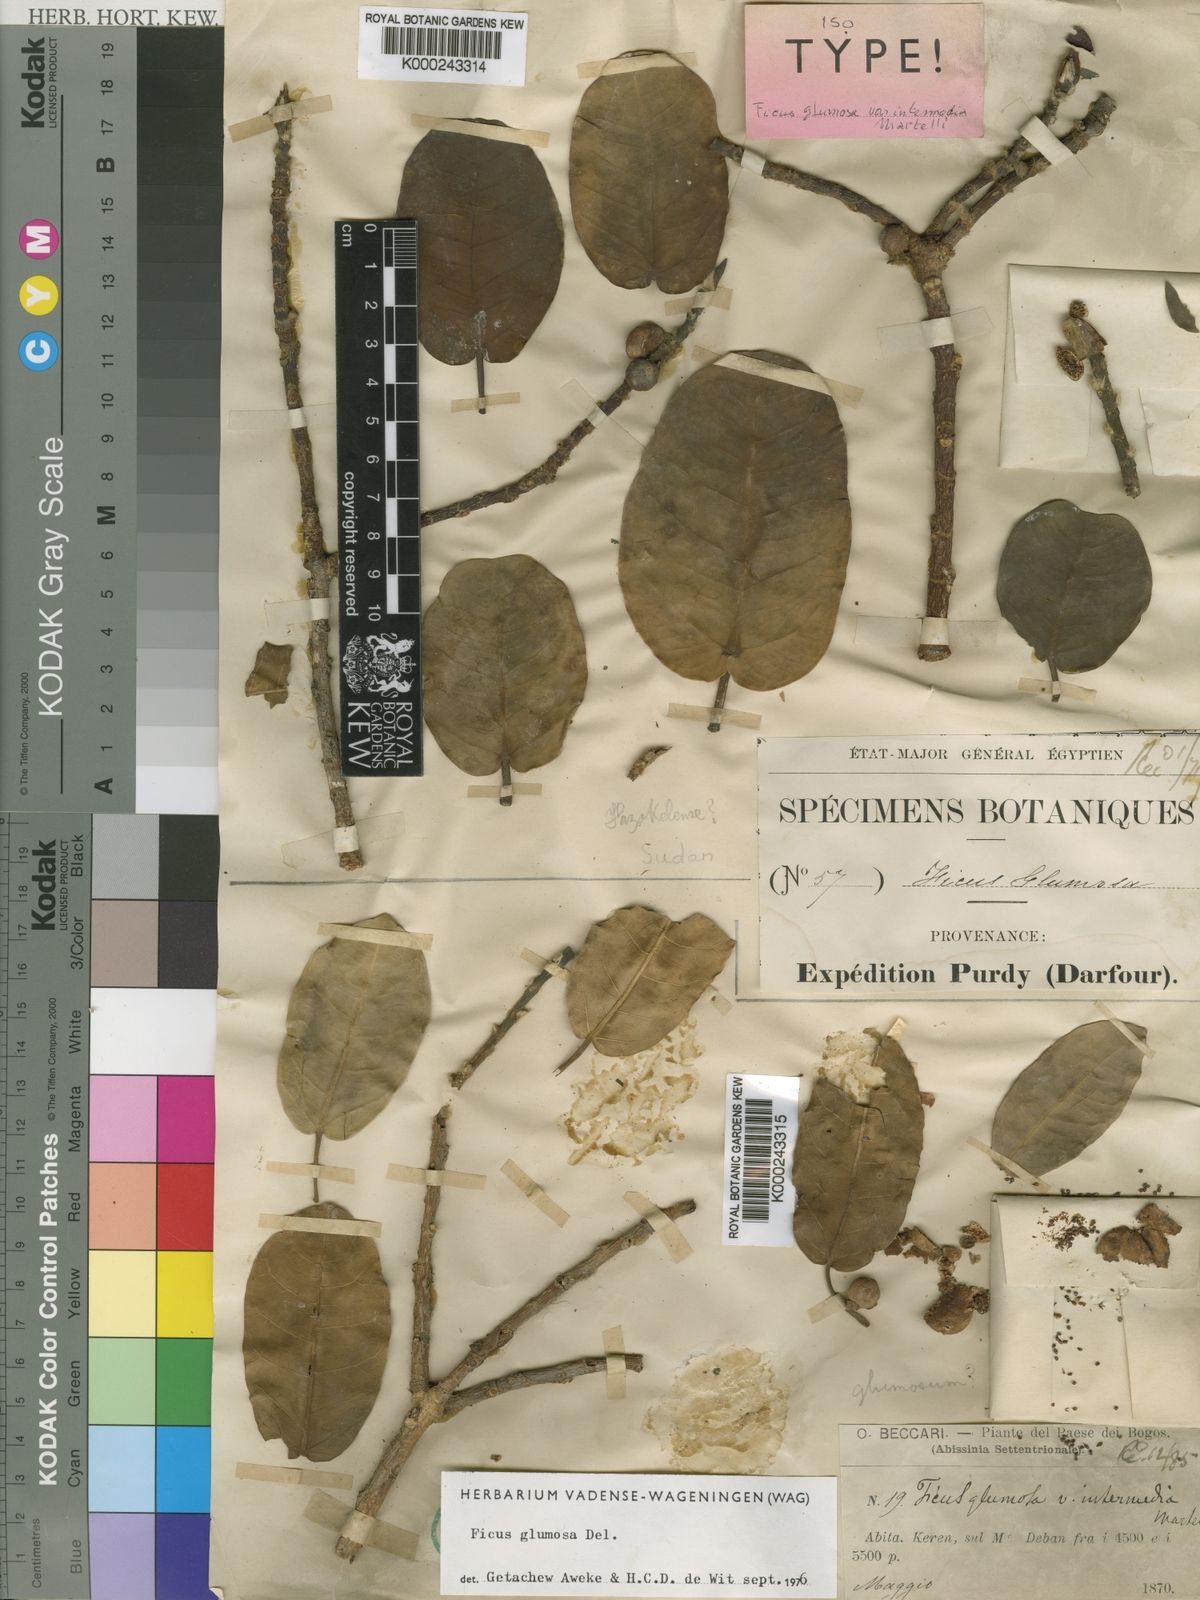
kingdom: Plantae
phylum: Tracheophyta
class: Magnoliopsida
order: Rosales
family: Moraceae
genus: Ficus
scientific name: Ficus glumosa
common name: Hairy rock fig
